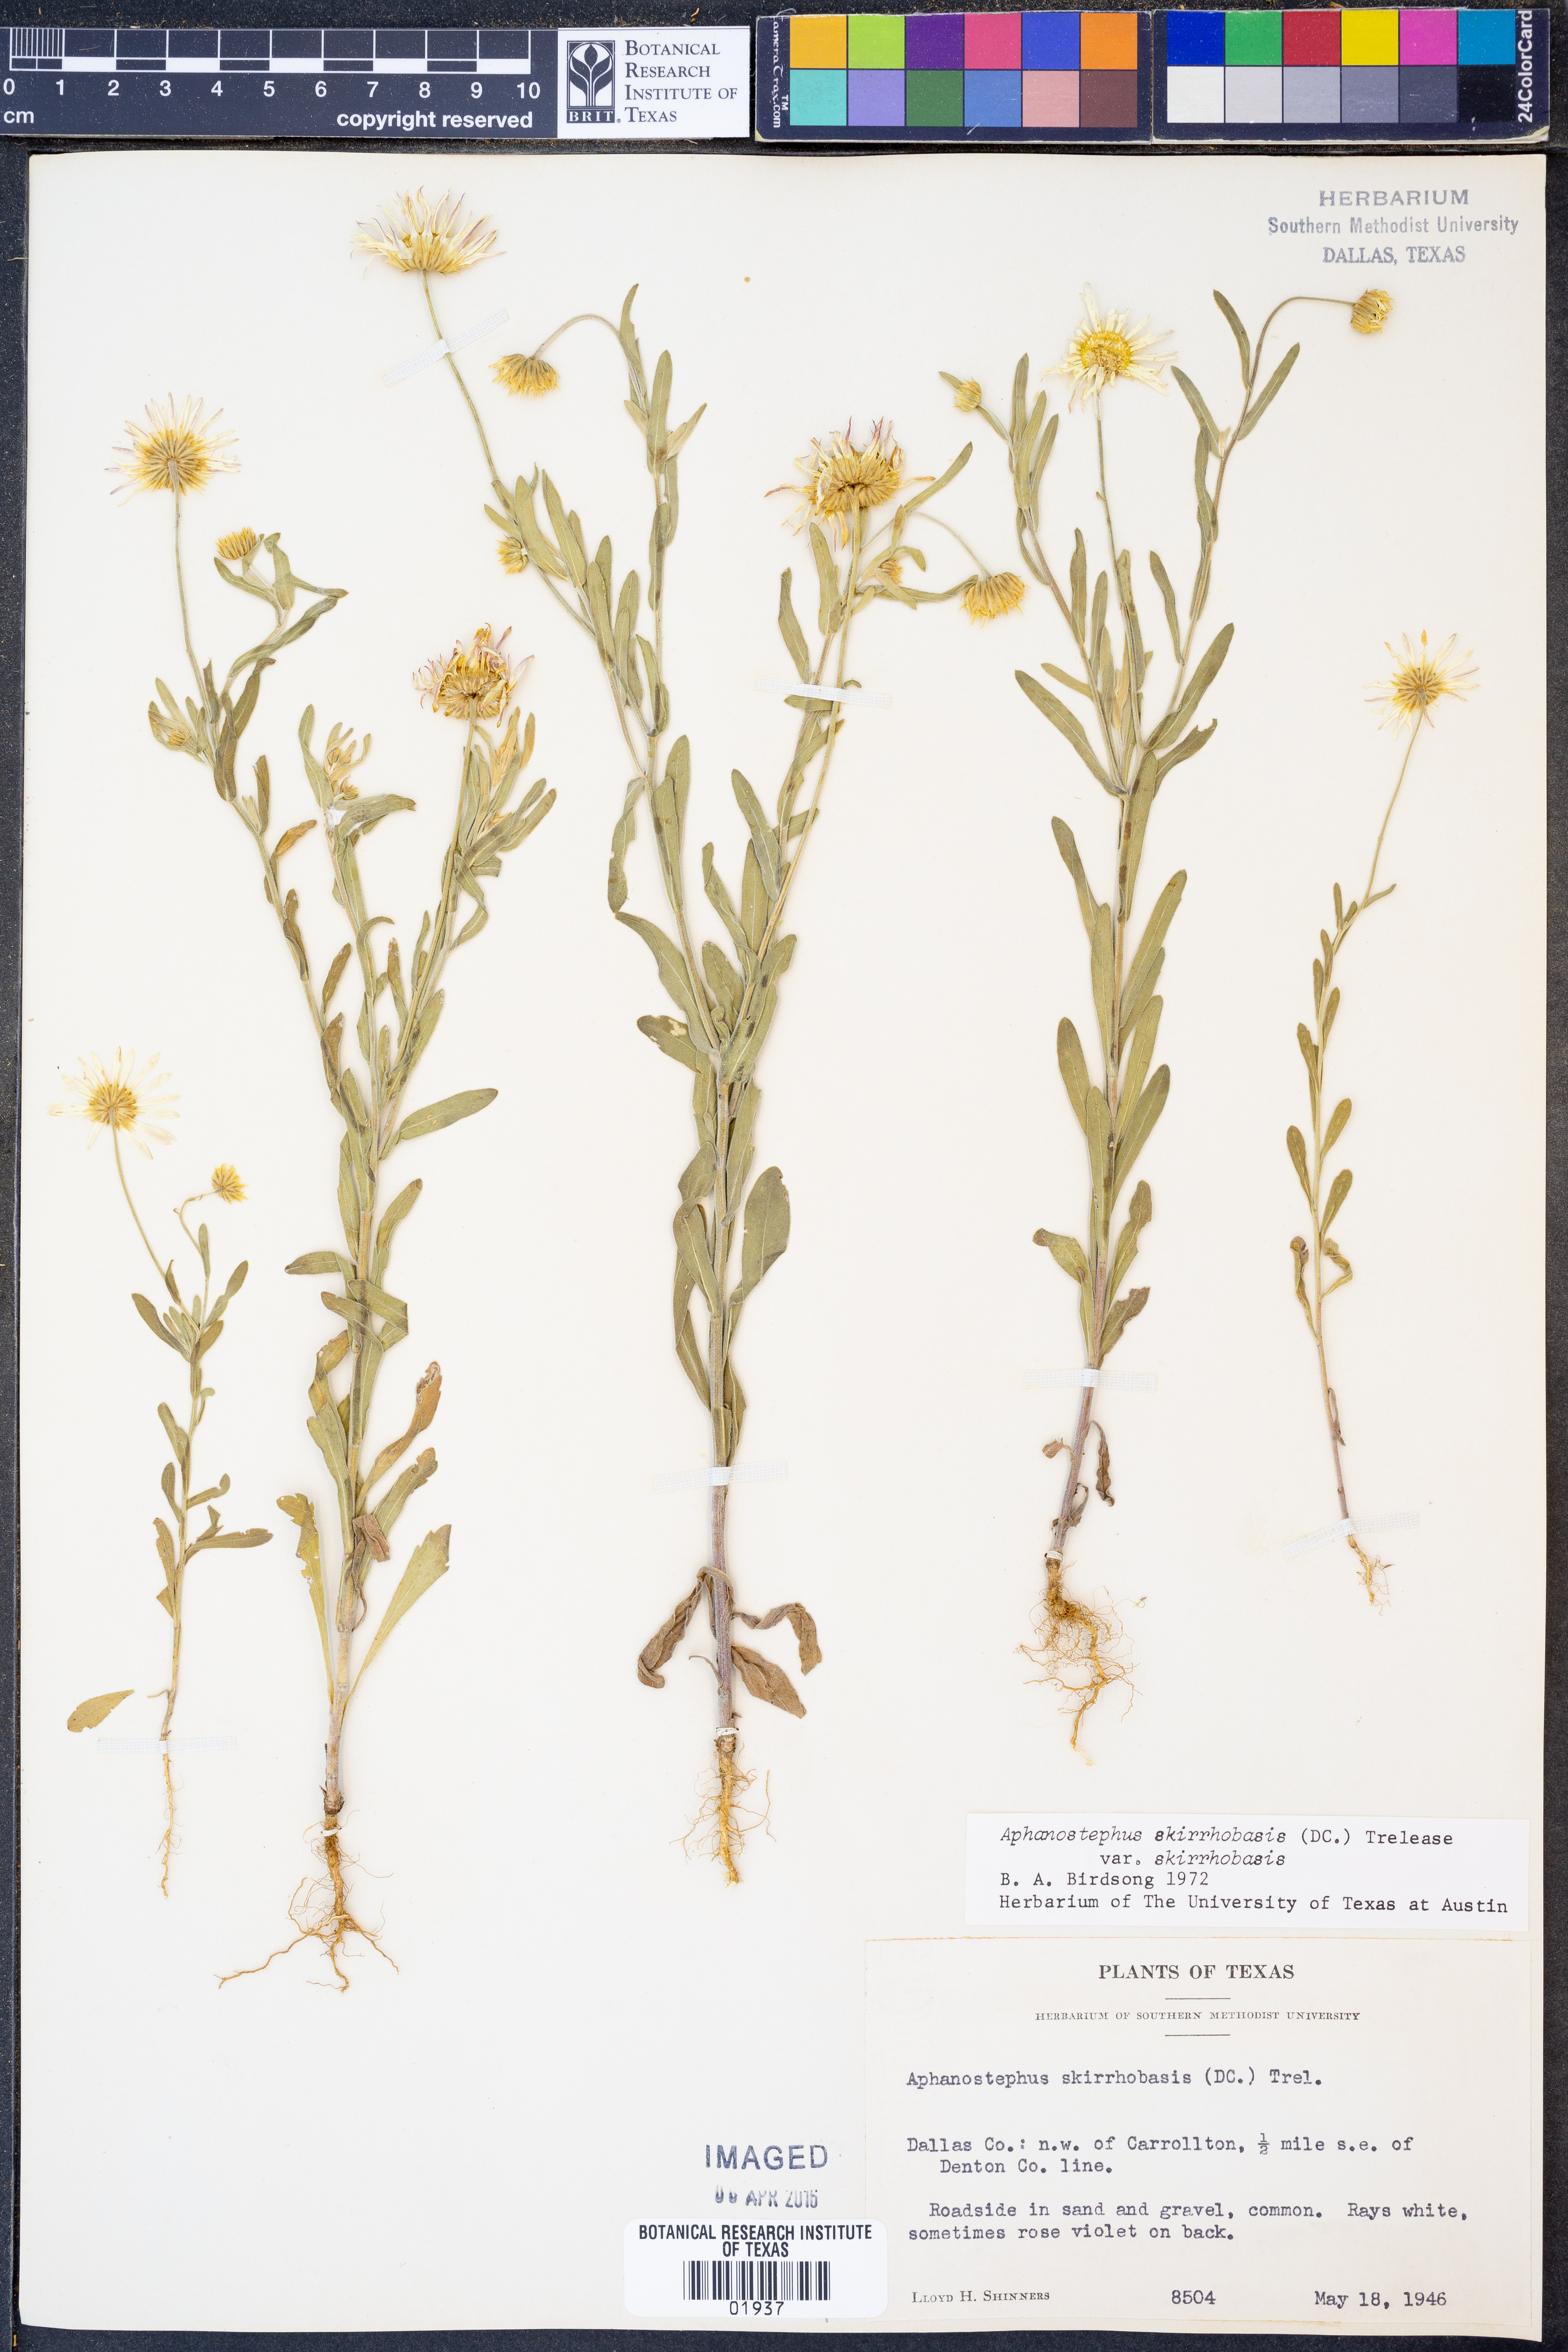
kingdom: Plantae
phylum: Tracheophyta
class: Magnoliopsida
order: Asterales
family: Asteraceae
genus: Aphanostephus
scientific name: Aphanostephus skirrhobasis
